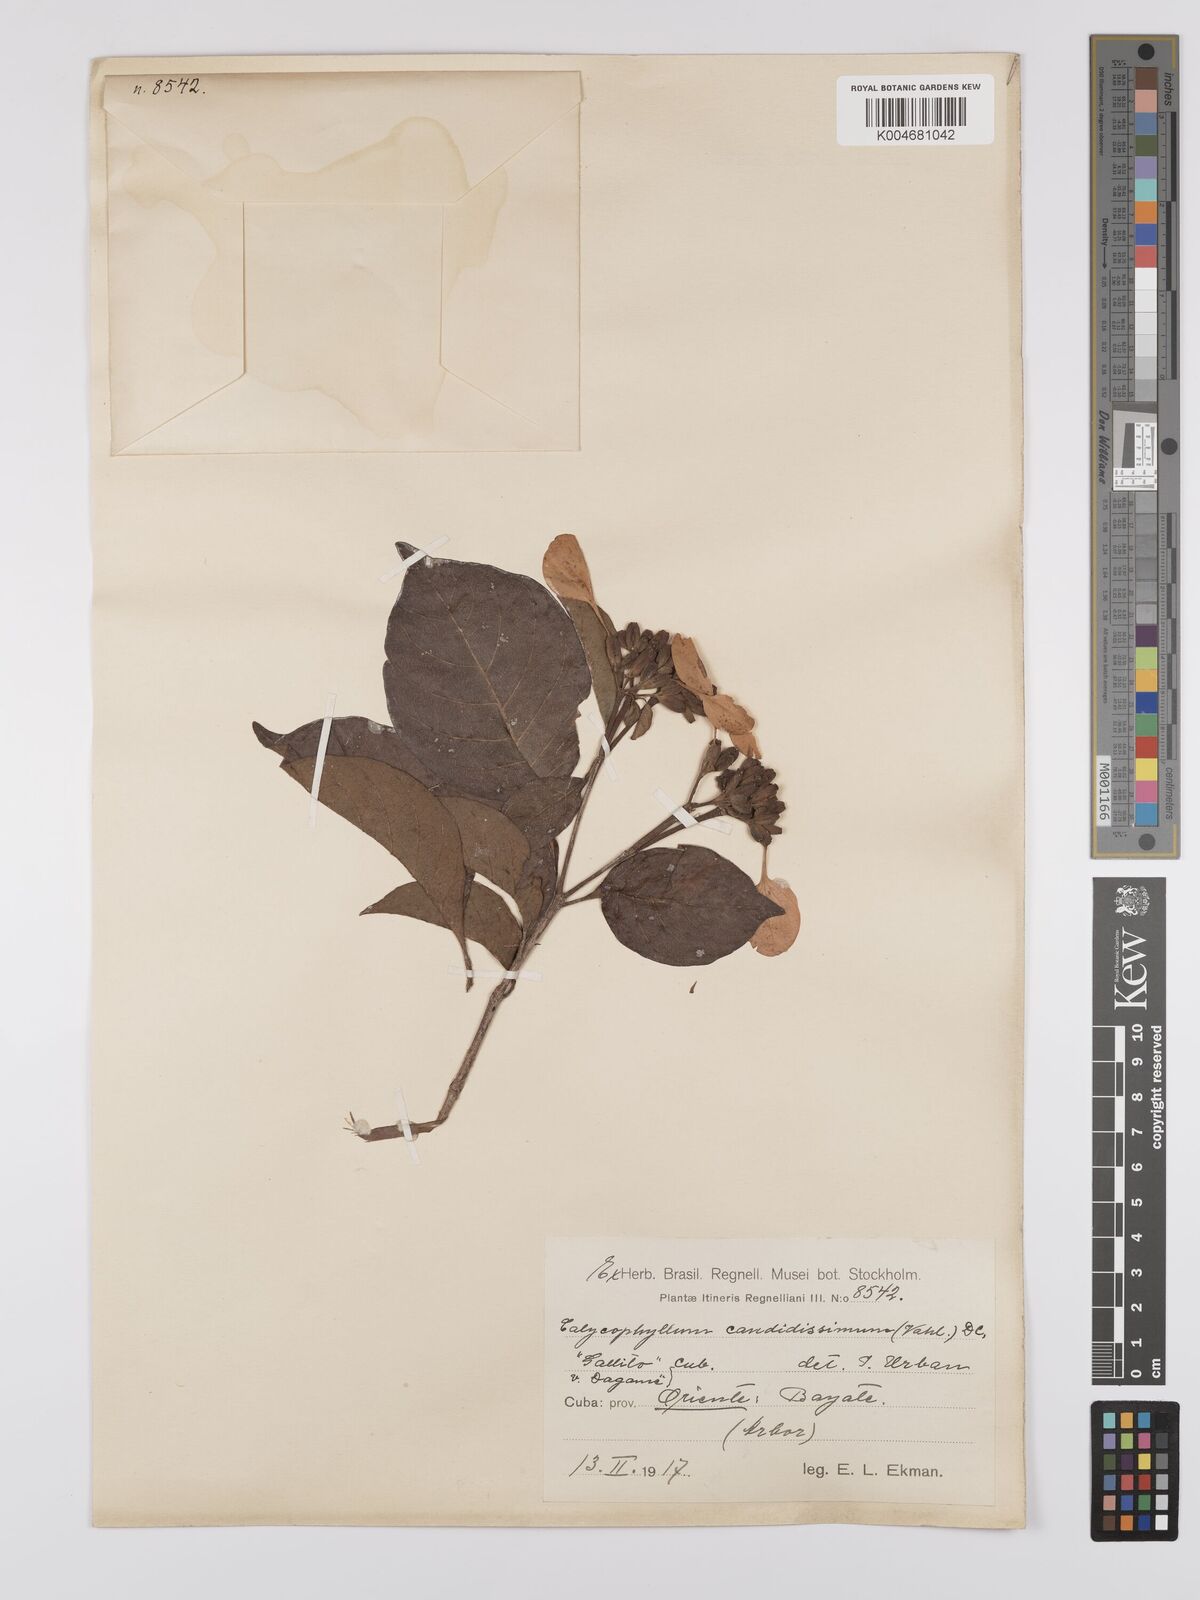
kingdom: Plantae
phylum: Tracheophyta
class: Magnoliopsida
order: Gentianales
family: Rubiaceae
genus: Calycophyllum
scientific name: Calycophyllum candidissimum
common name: Dagame
